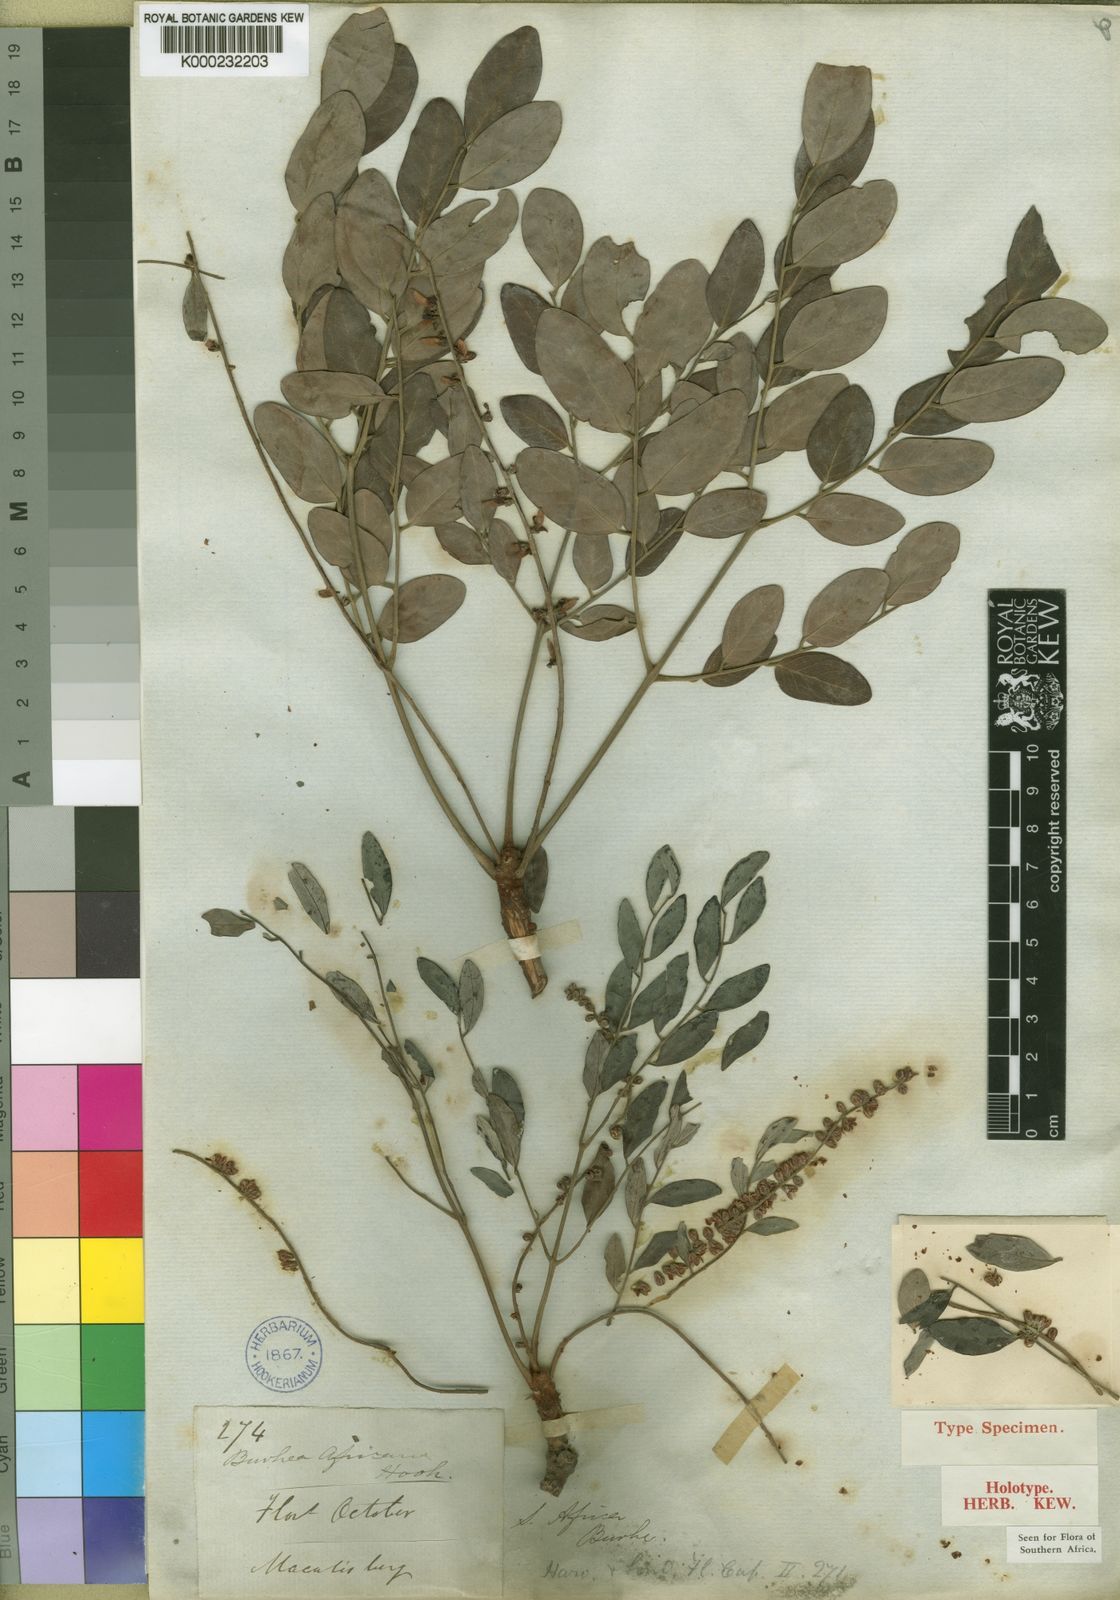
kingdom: Plantae
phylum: Tracheophyta
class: Magnoliopsida
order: Fabales
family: Fabaceae
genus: Burkea
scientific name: Burkea africana
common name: Mkalati tree
